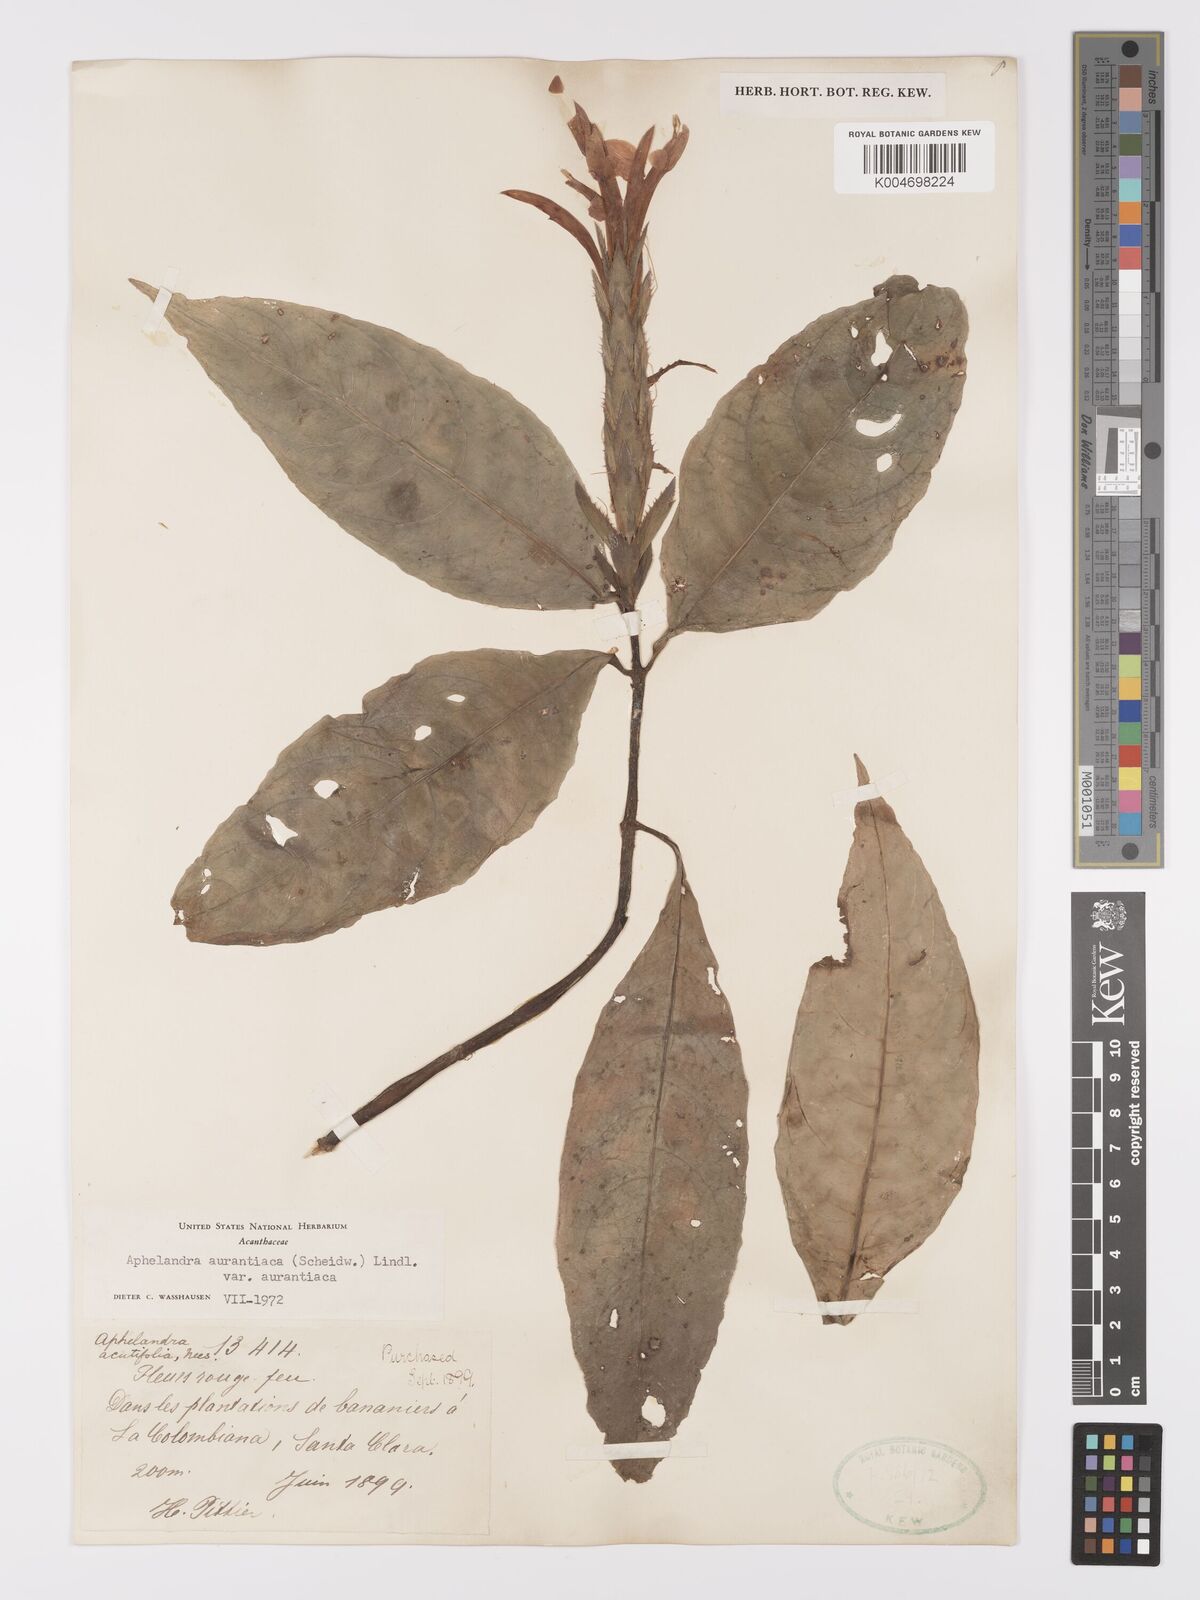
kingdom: Plantae
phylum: Tracheophyta
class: Magnoliopsida
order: Lamiales
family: Acanthaceae
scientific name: Acanthaceae
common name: Acanthaceae
